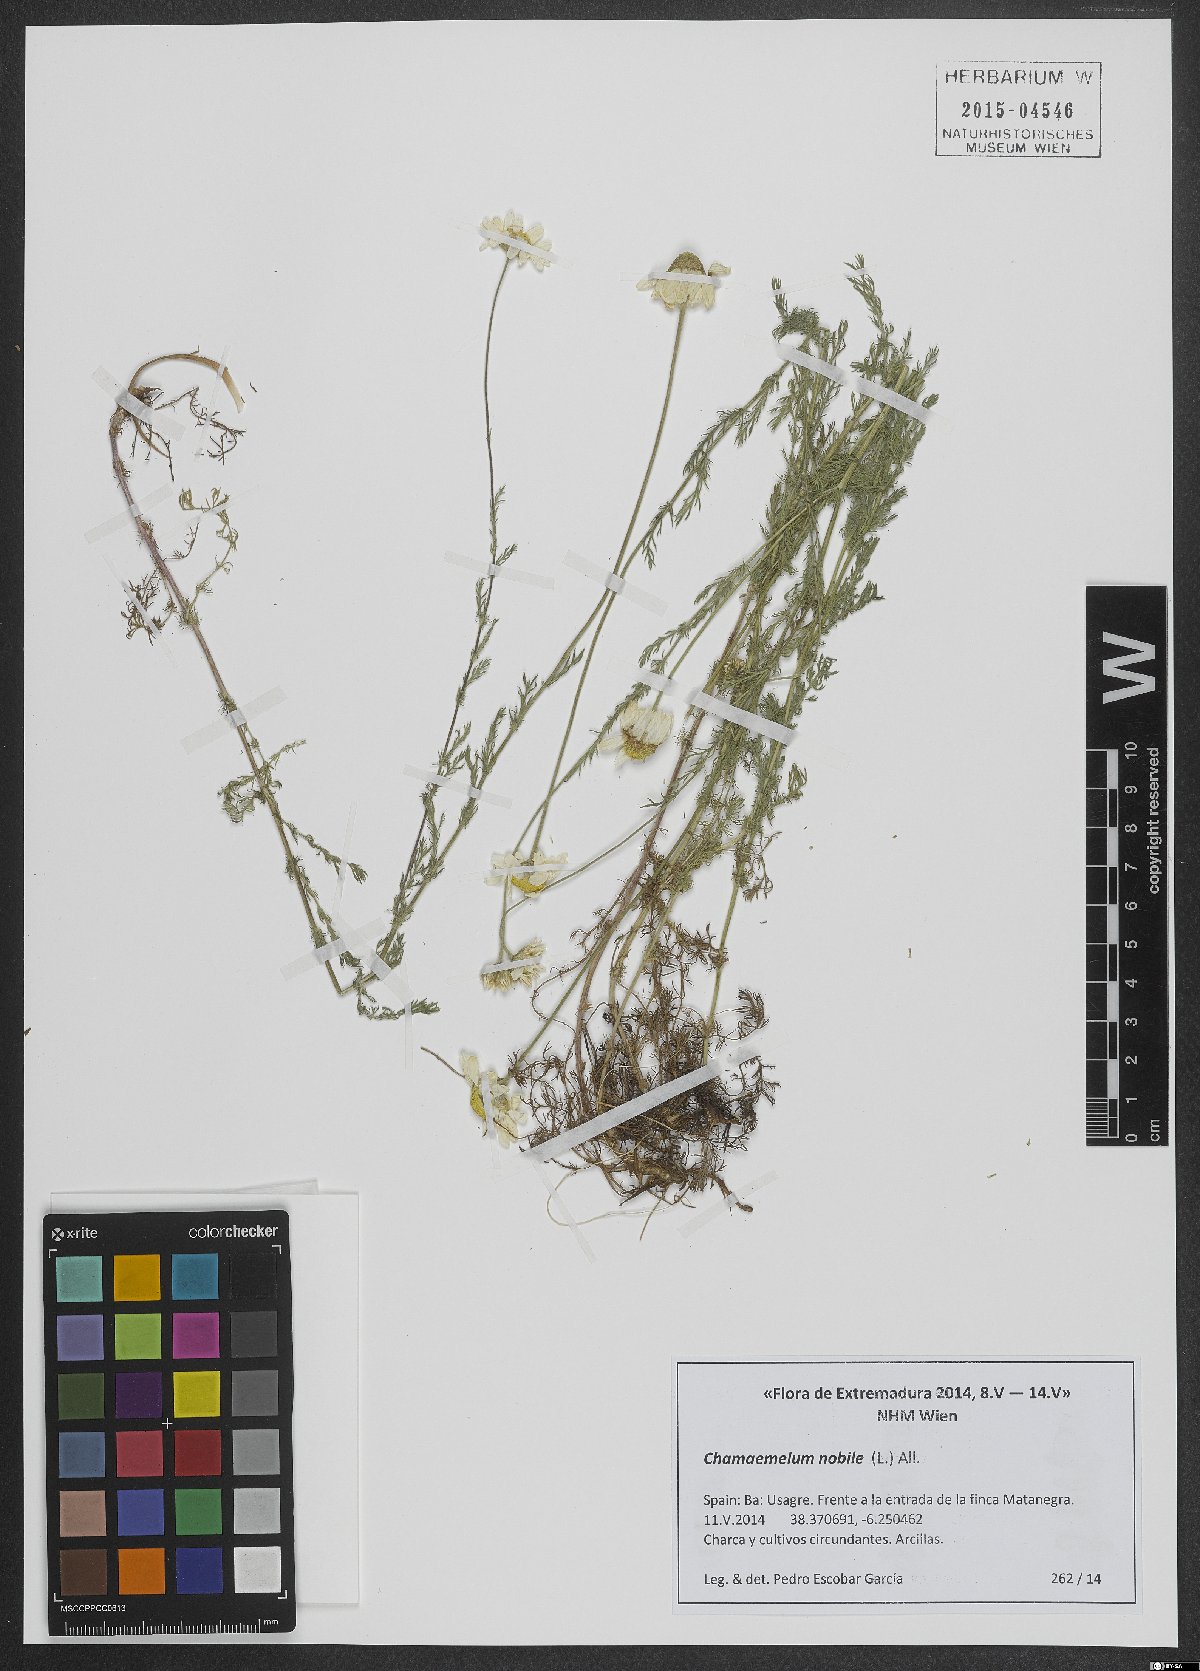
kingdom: Plantae
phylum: Tracheophyta
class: Magnoliopsida
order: Asterales
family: Asteraceae
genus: Chamaemelum
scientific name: Chamaemelum nobile
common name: Roman chamomile
